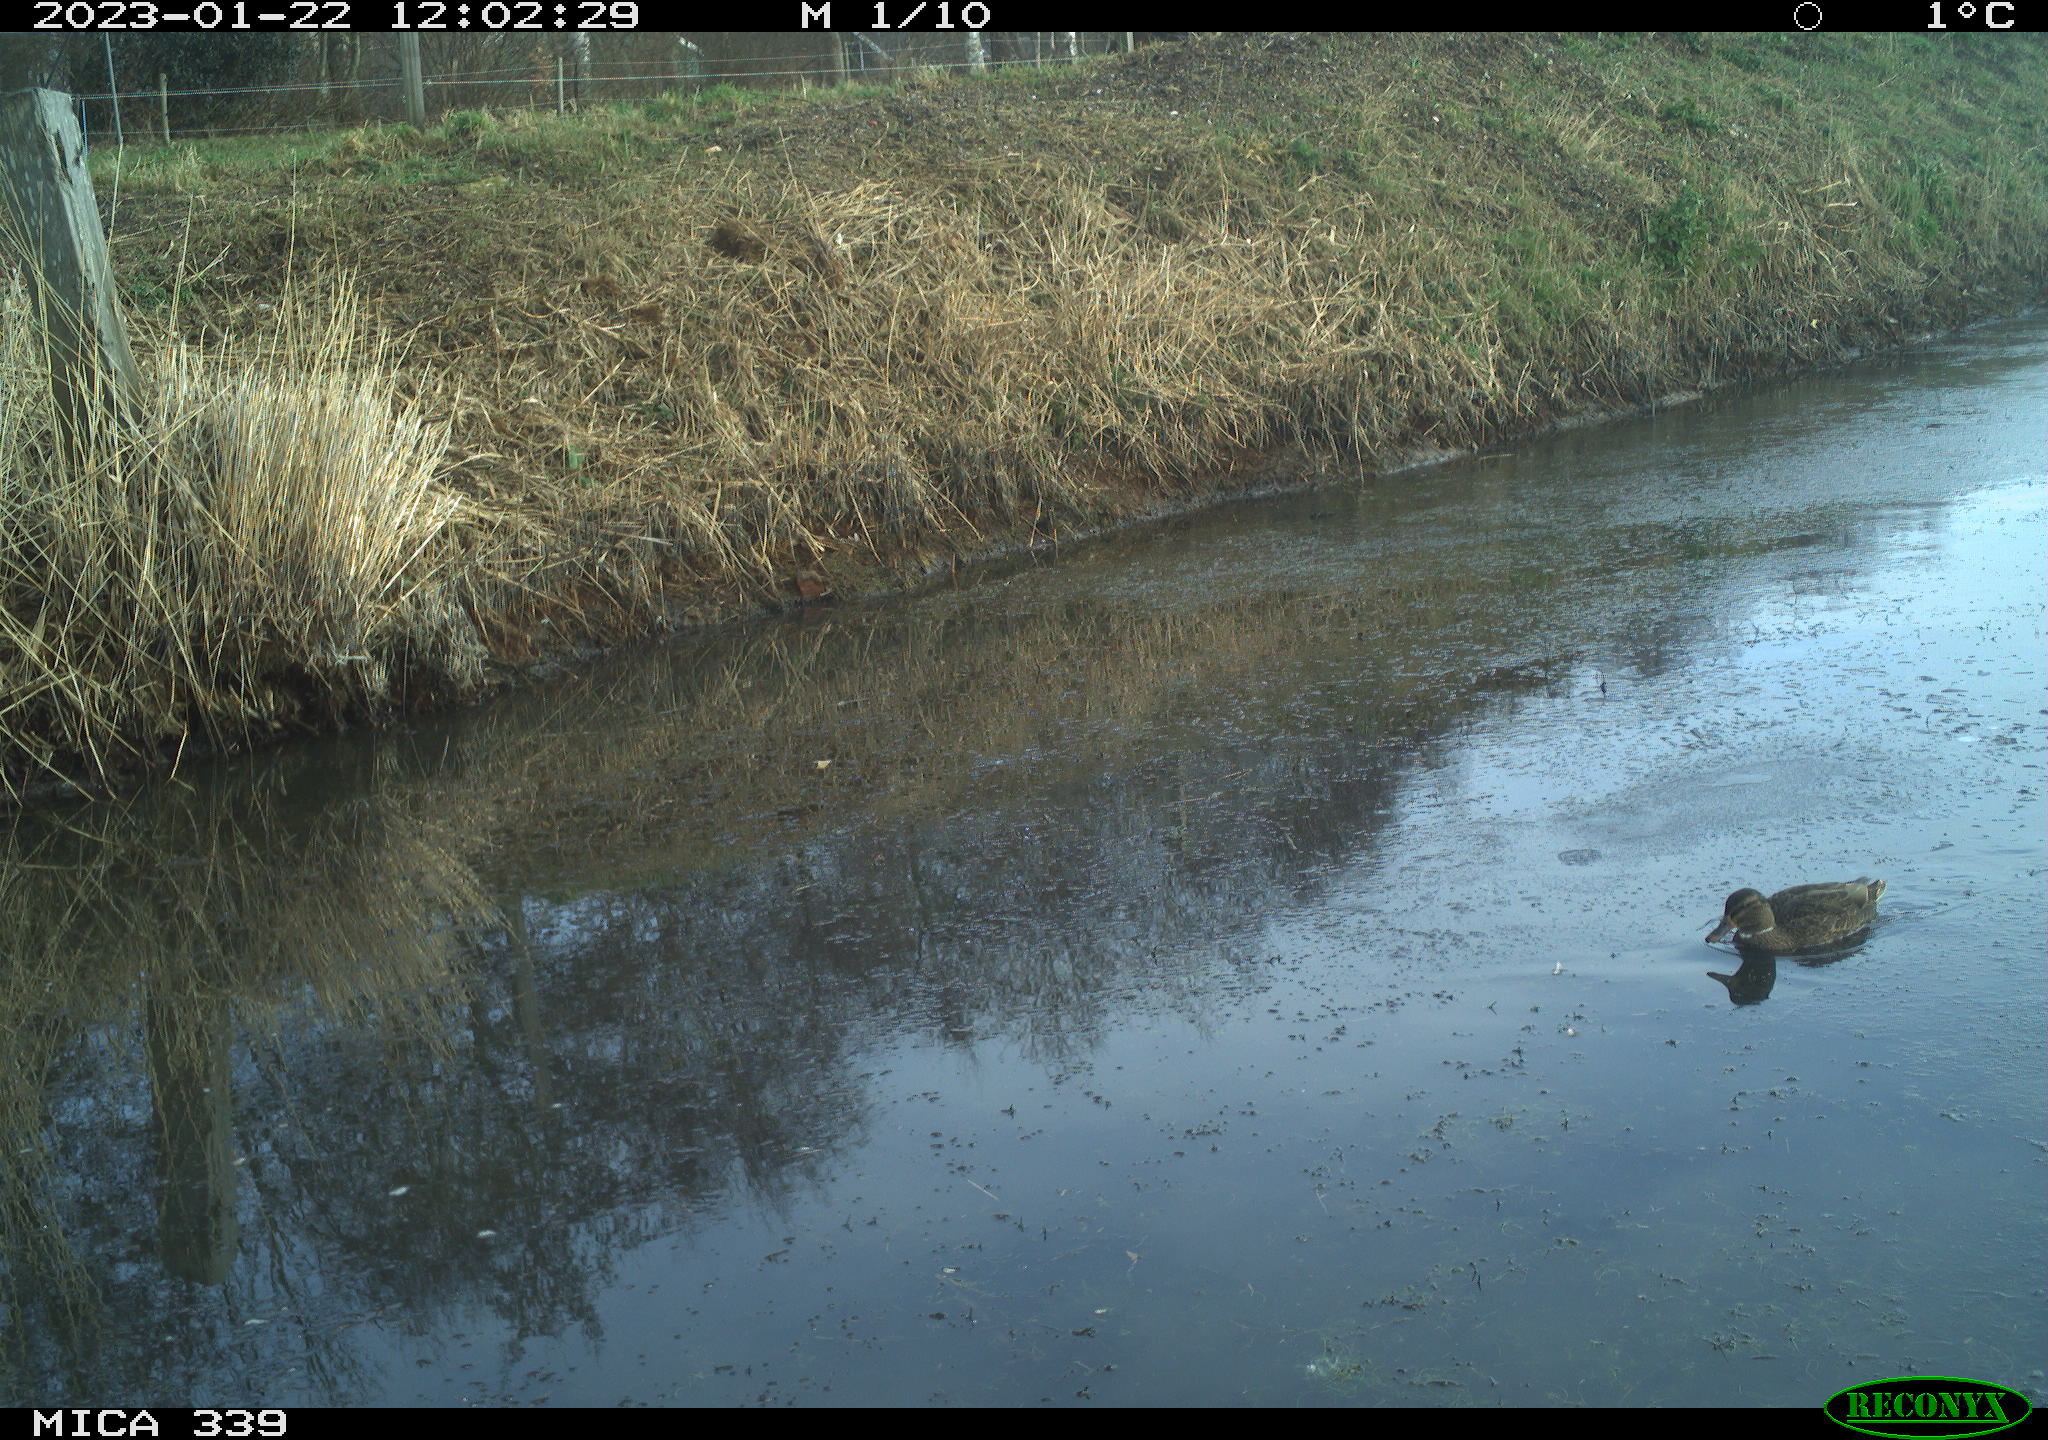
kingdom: Animalia
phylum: Chordata
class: Aves
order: Anseriformes
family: Anatidae
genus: Anas
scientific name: Anas
